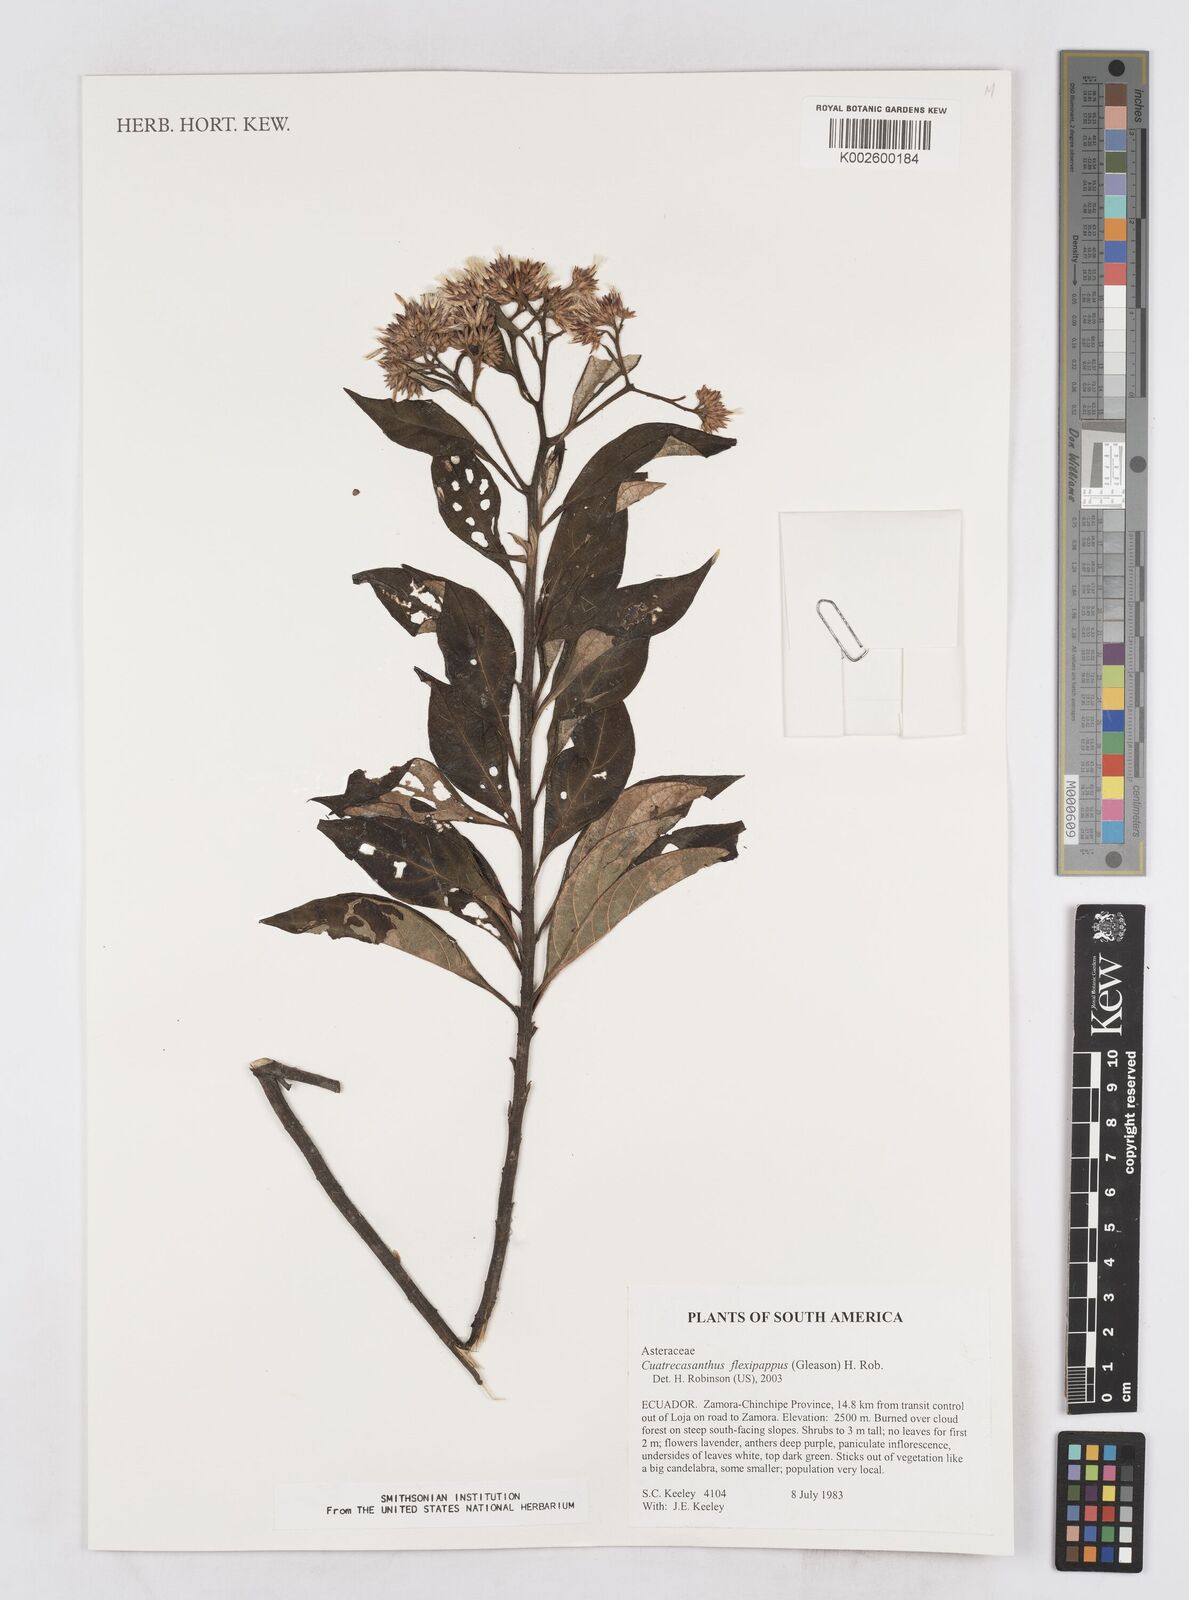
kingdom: Plantae
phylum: Tracheophyta
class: Magnoliopsida
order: Asterales
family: Asteraceae
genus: Cuatrecasanthus
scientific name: Cuatrecasanthus flexipappus
